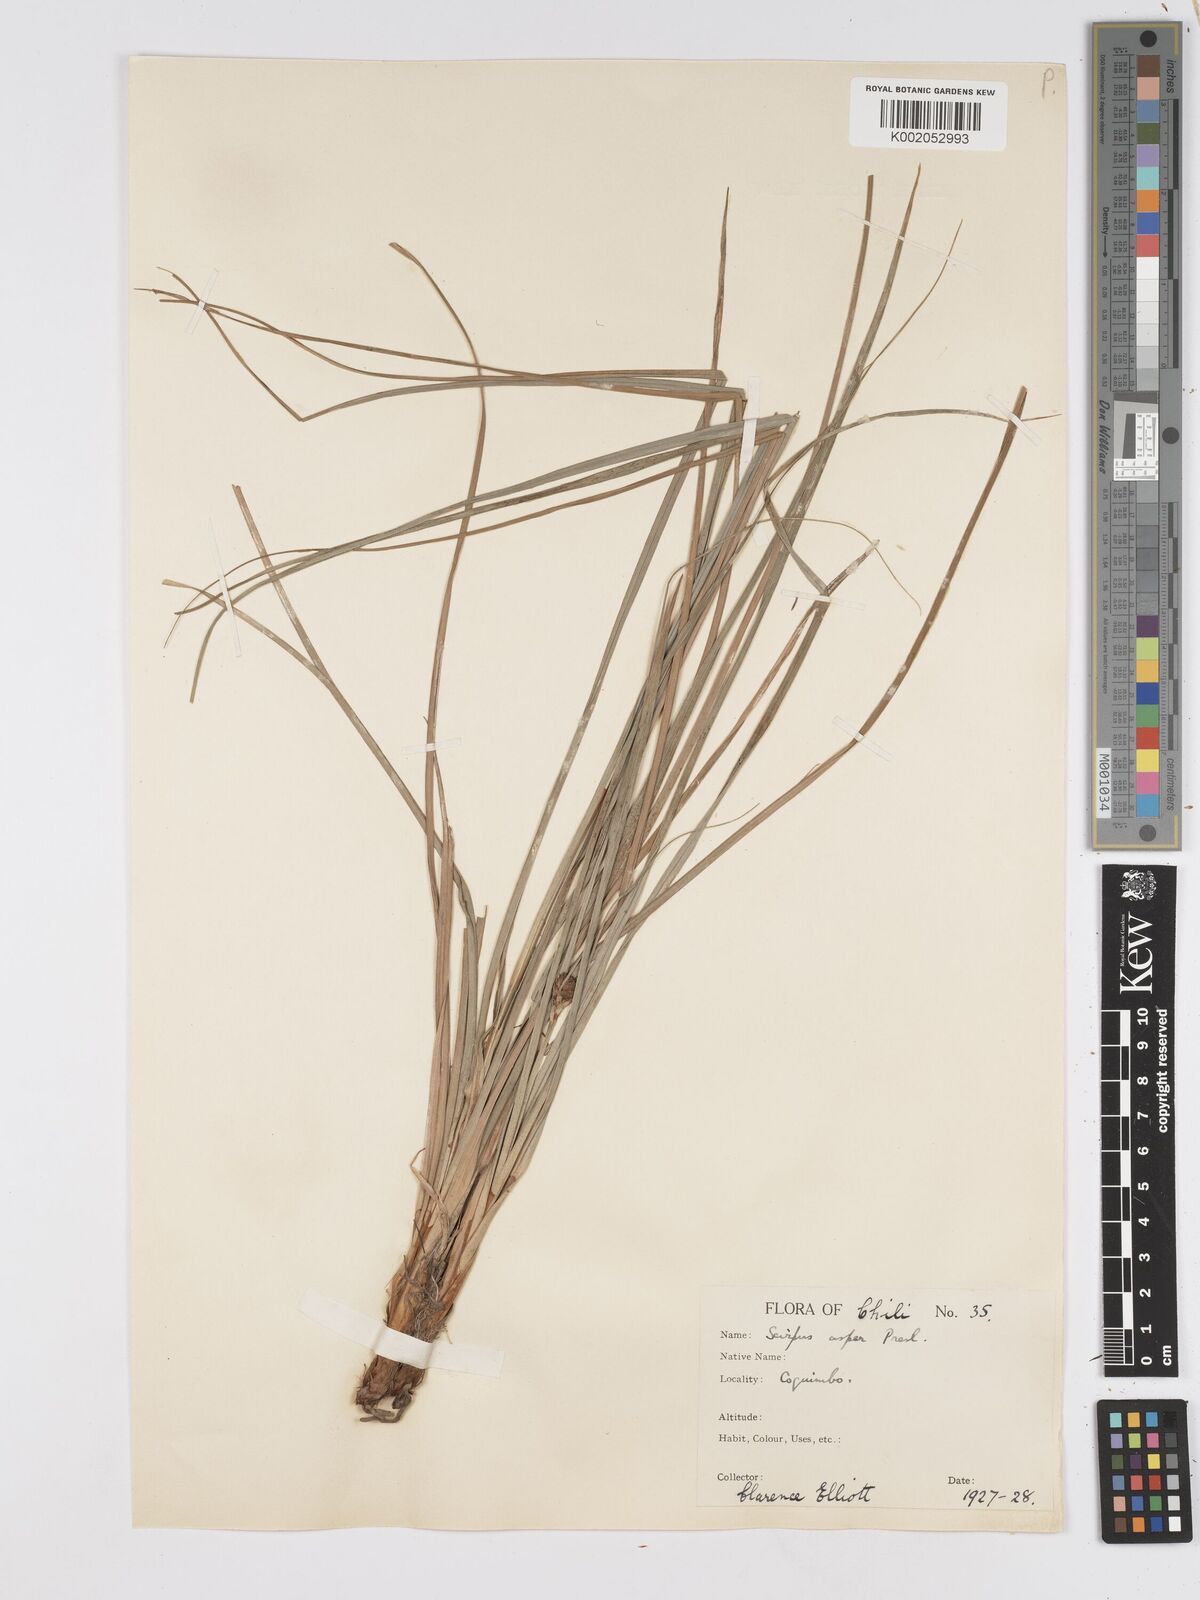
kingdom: Plantae
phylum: Tracheophyta
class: Liliopsida
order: Poales
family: Cyperaceae
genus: Rhodoscirpus
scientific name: Rhodoscirpus asper
